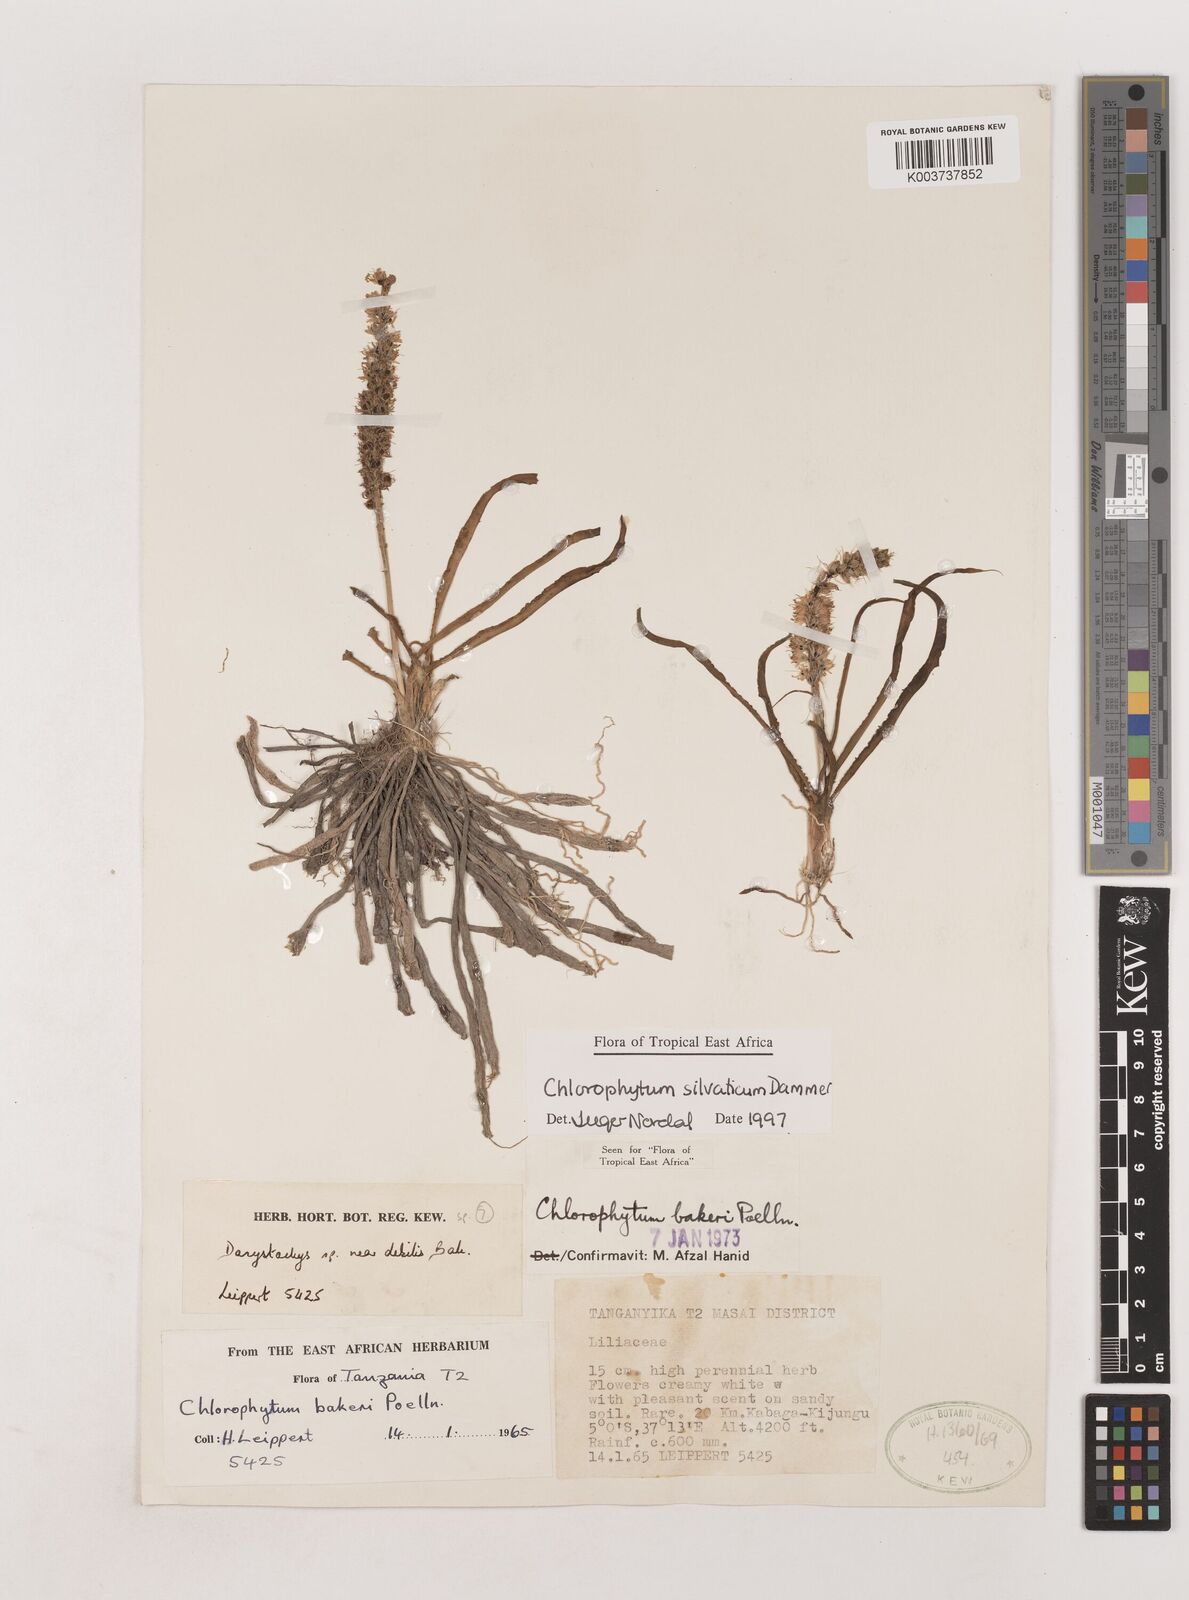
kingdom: Plantae
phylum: Tracheophyta
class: Liliopsida
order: Asparagales
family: Asparagaceae
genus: Chlorophytum
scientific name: Chlorophytum africanum
